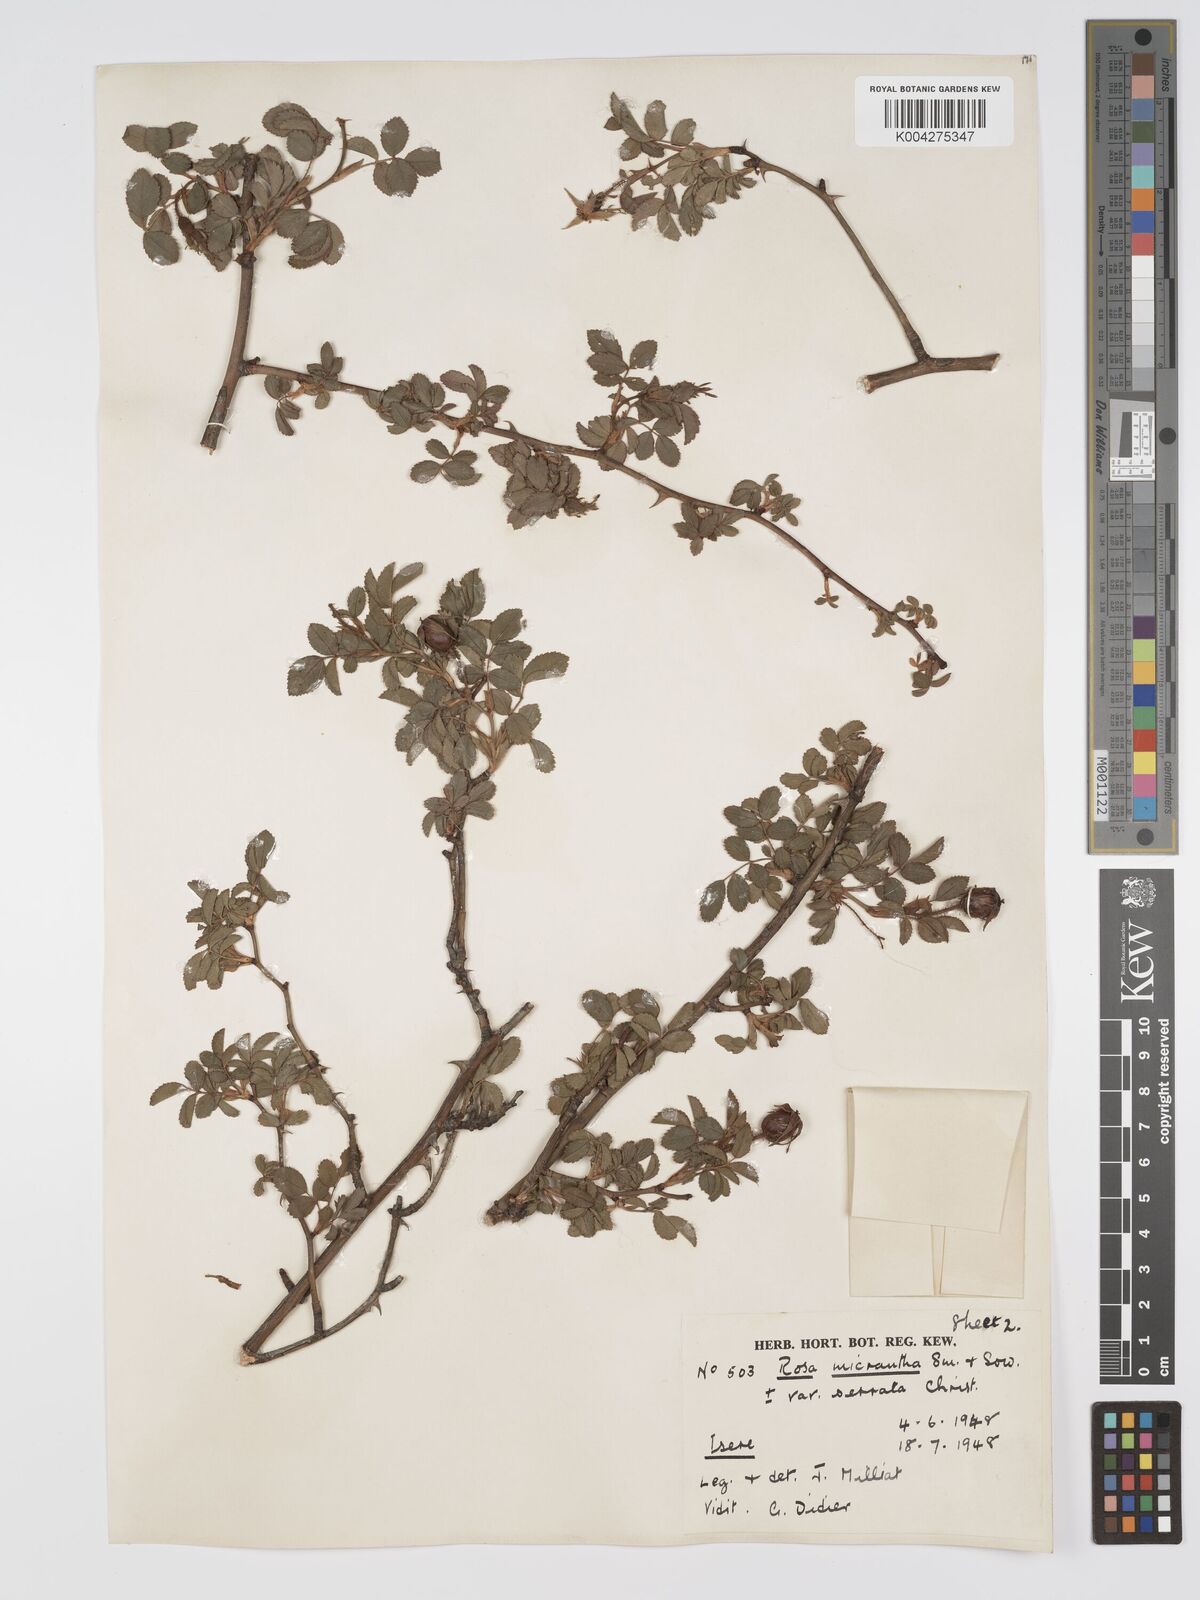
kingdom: Plantae
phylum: Tracheophyta
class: Magnoliopsida
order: Rosales
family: Rosaceae
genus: Rosa
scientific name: Rosa
